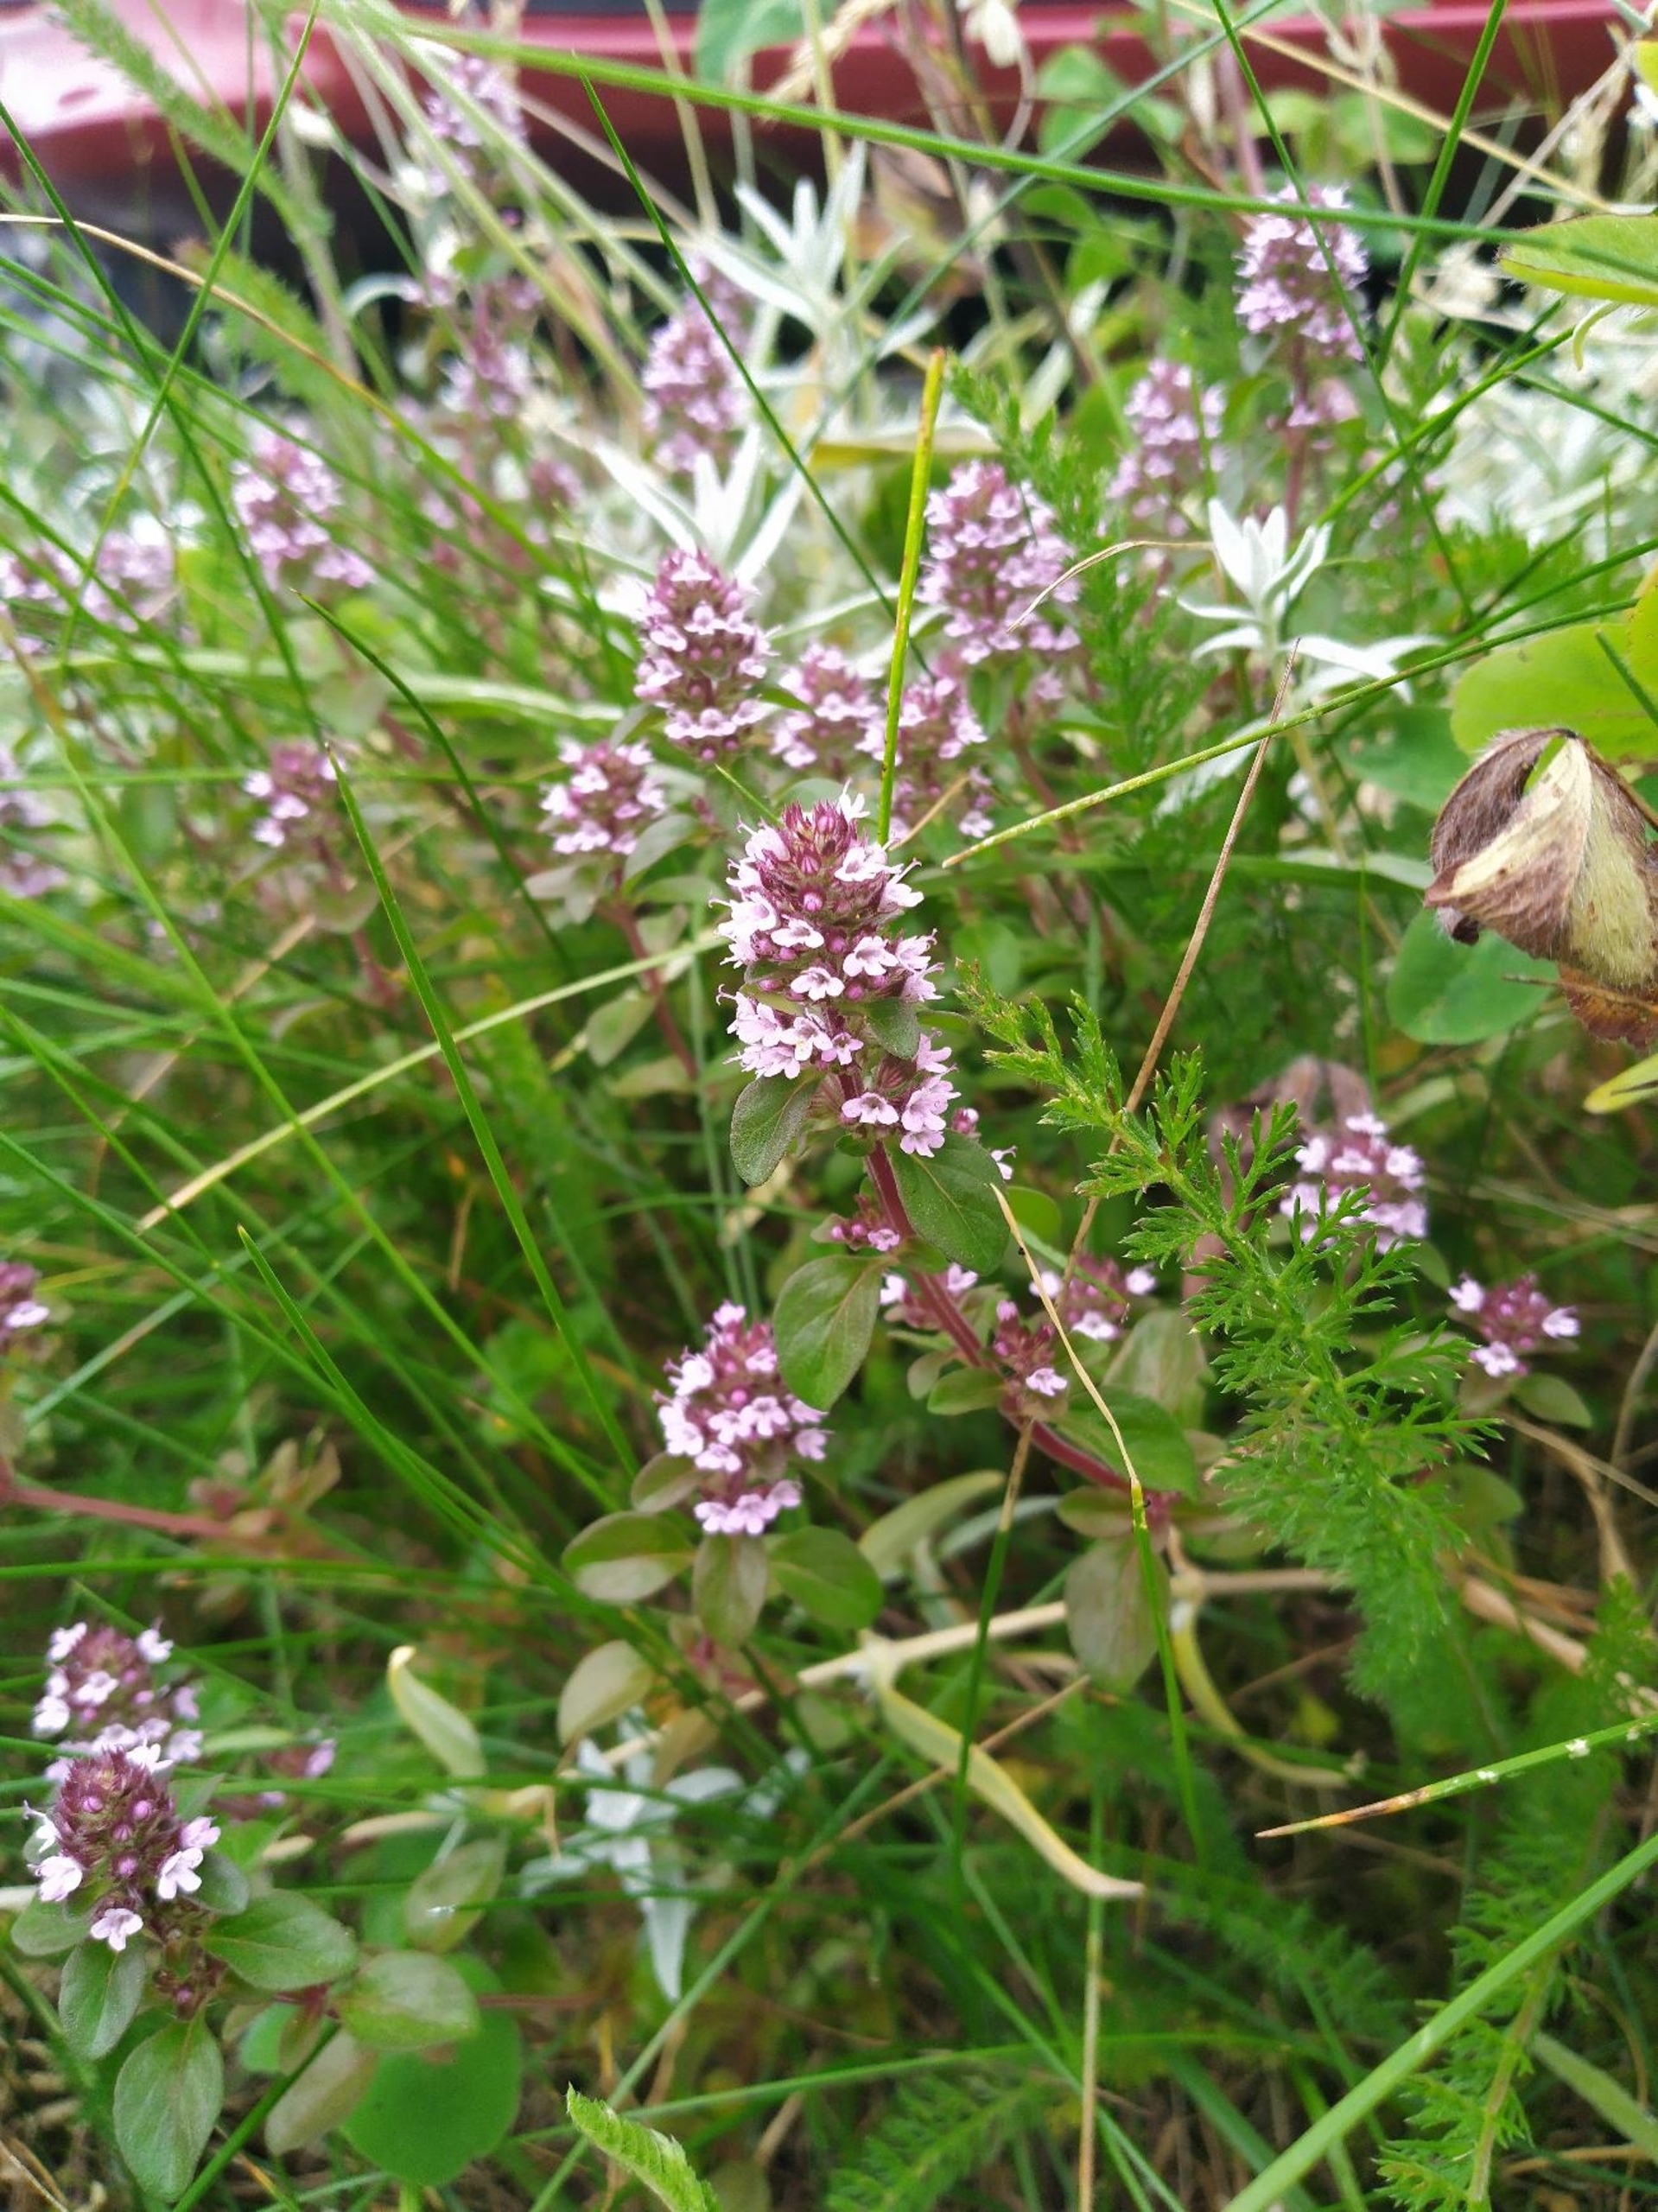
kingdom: Plantae
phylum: Tracheophyta
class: Magnoliopsida
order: Lamiales
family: Lamiaceae
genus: Thymus
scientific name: Thymus pulegioides
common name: Bredbladet timian
